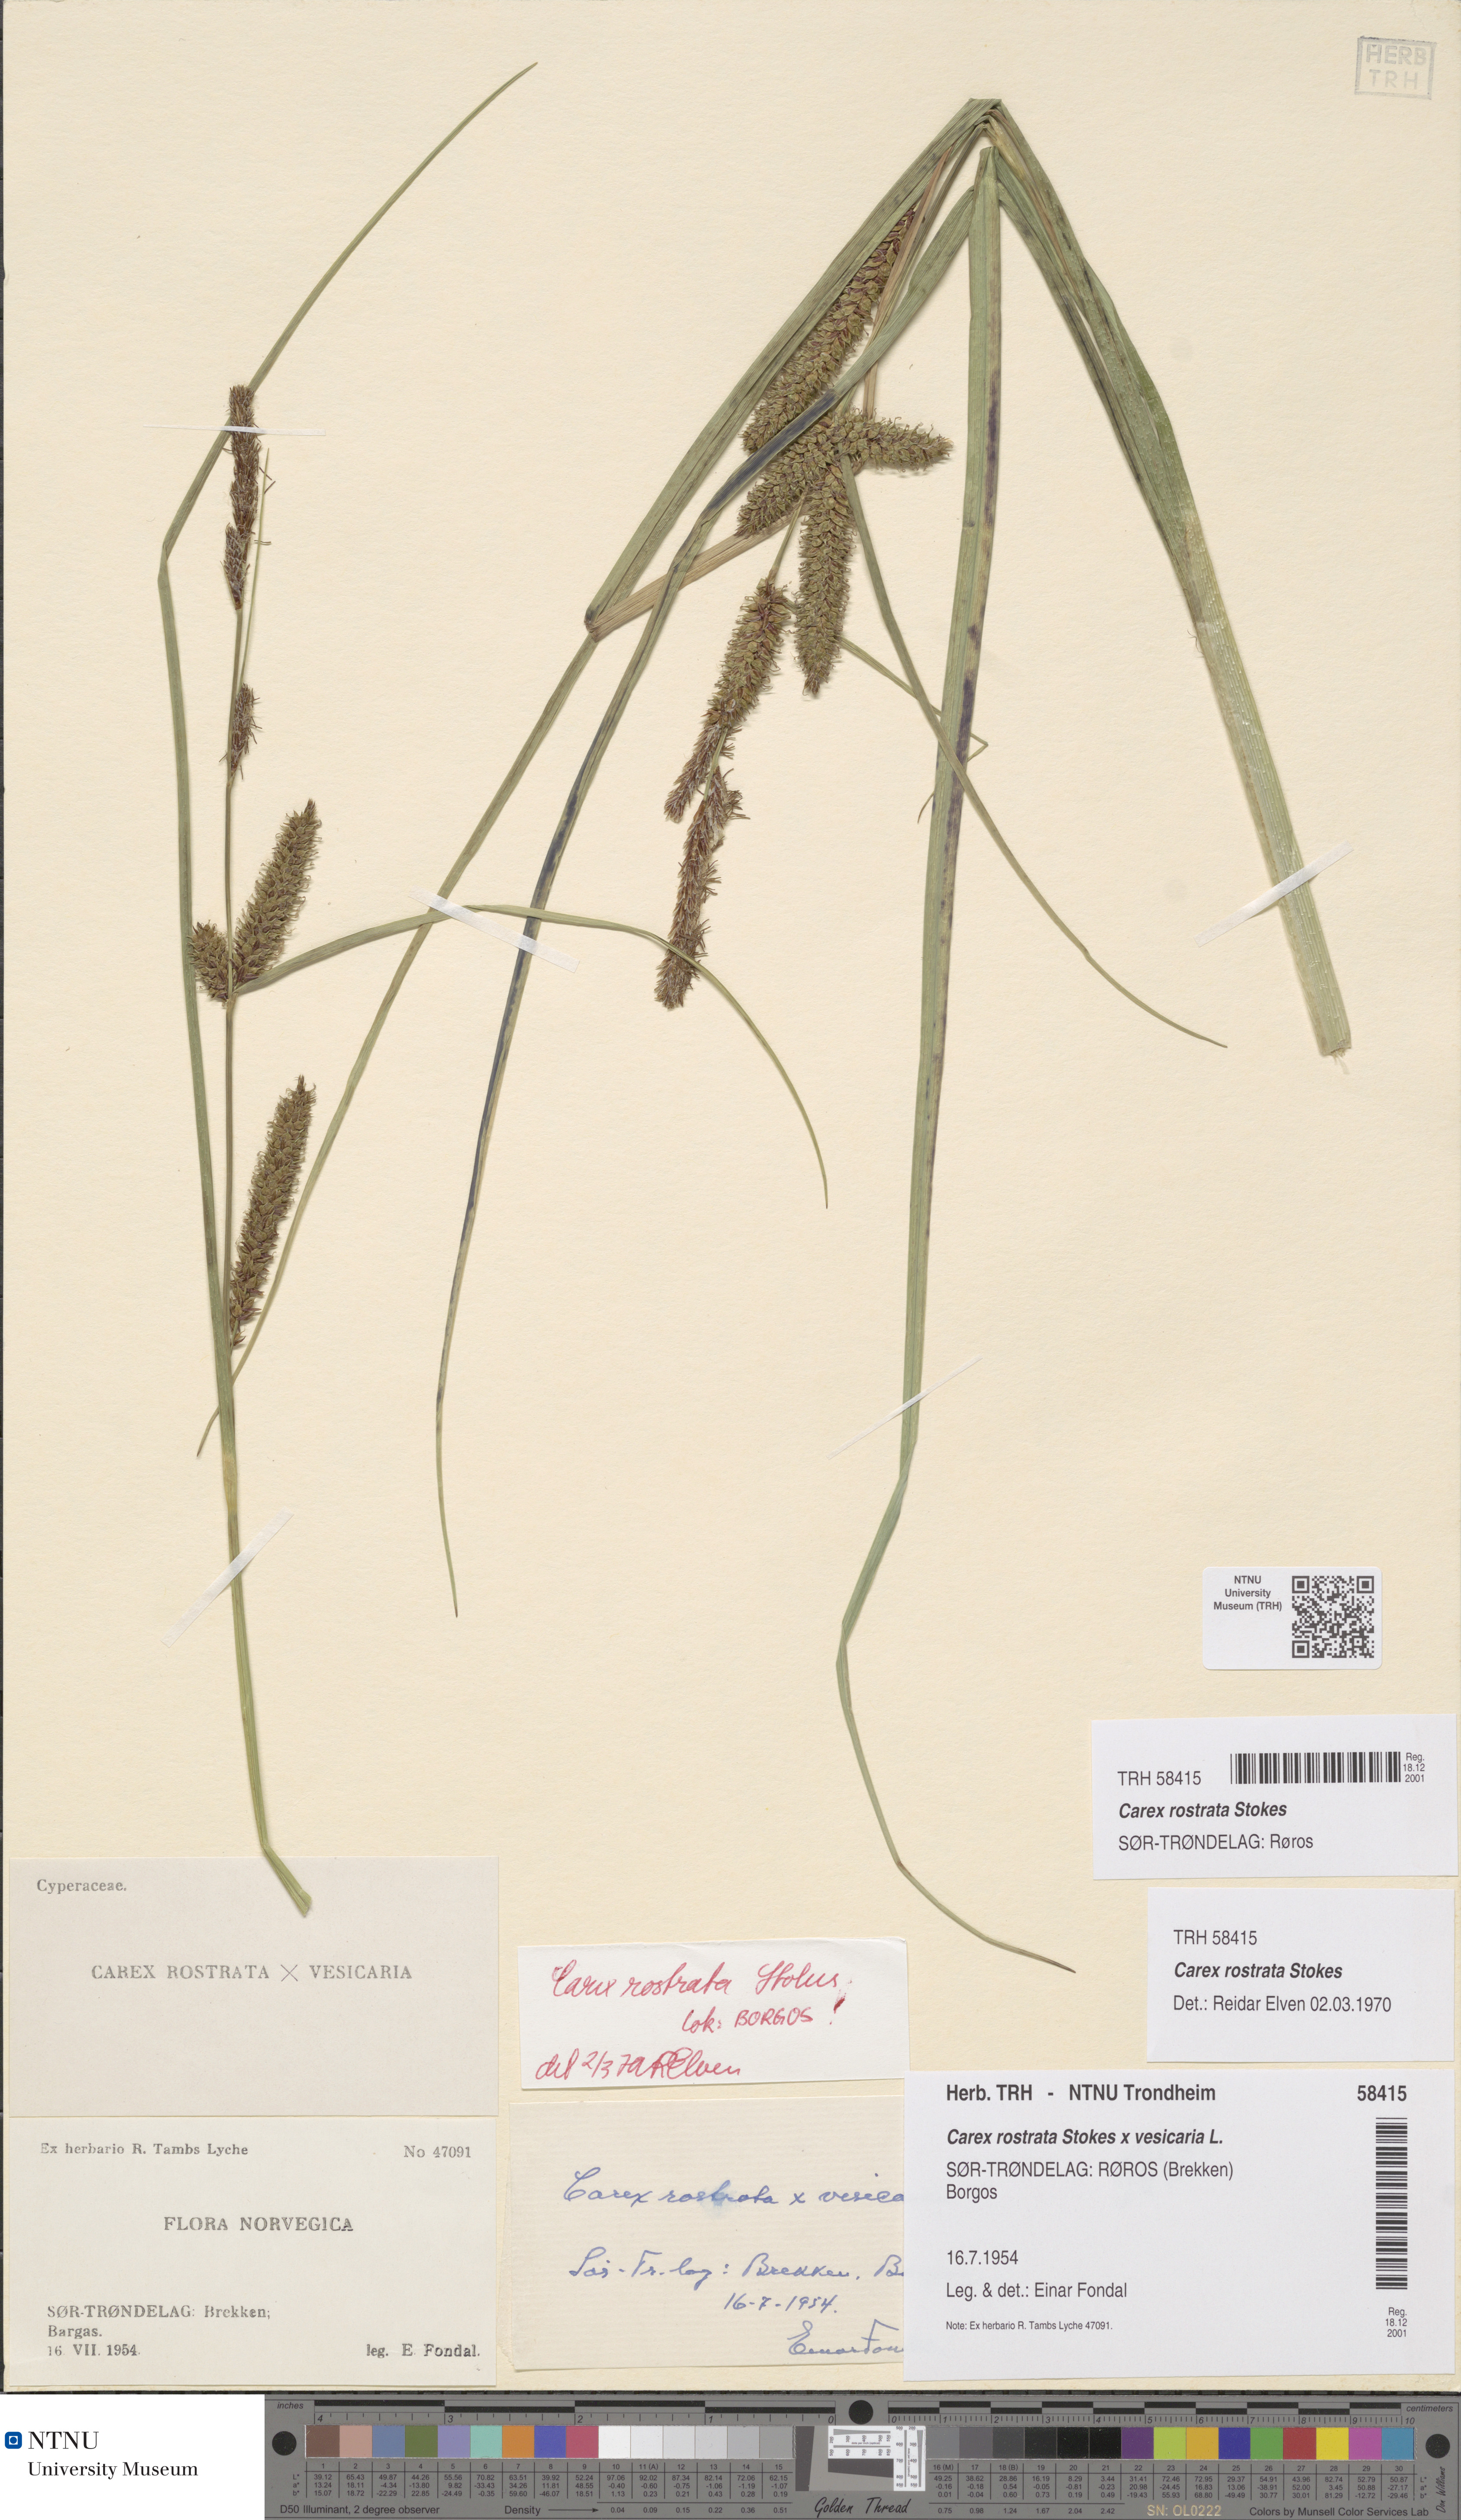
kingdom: Plantae
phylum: Tracheophyta
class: Liliopsida
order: Poales
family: Cyperaceae
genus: Carex
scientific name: Carex rostrata
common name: Bottle sedge
